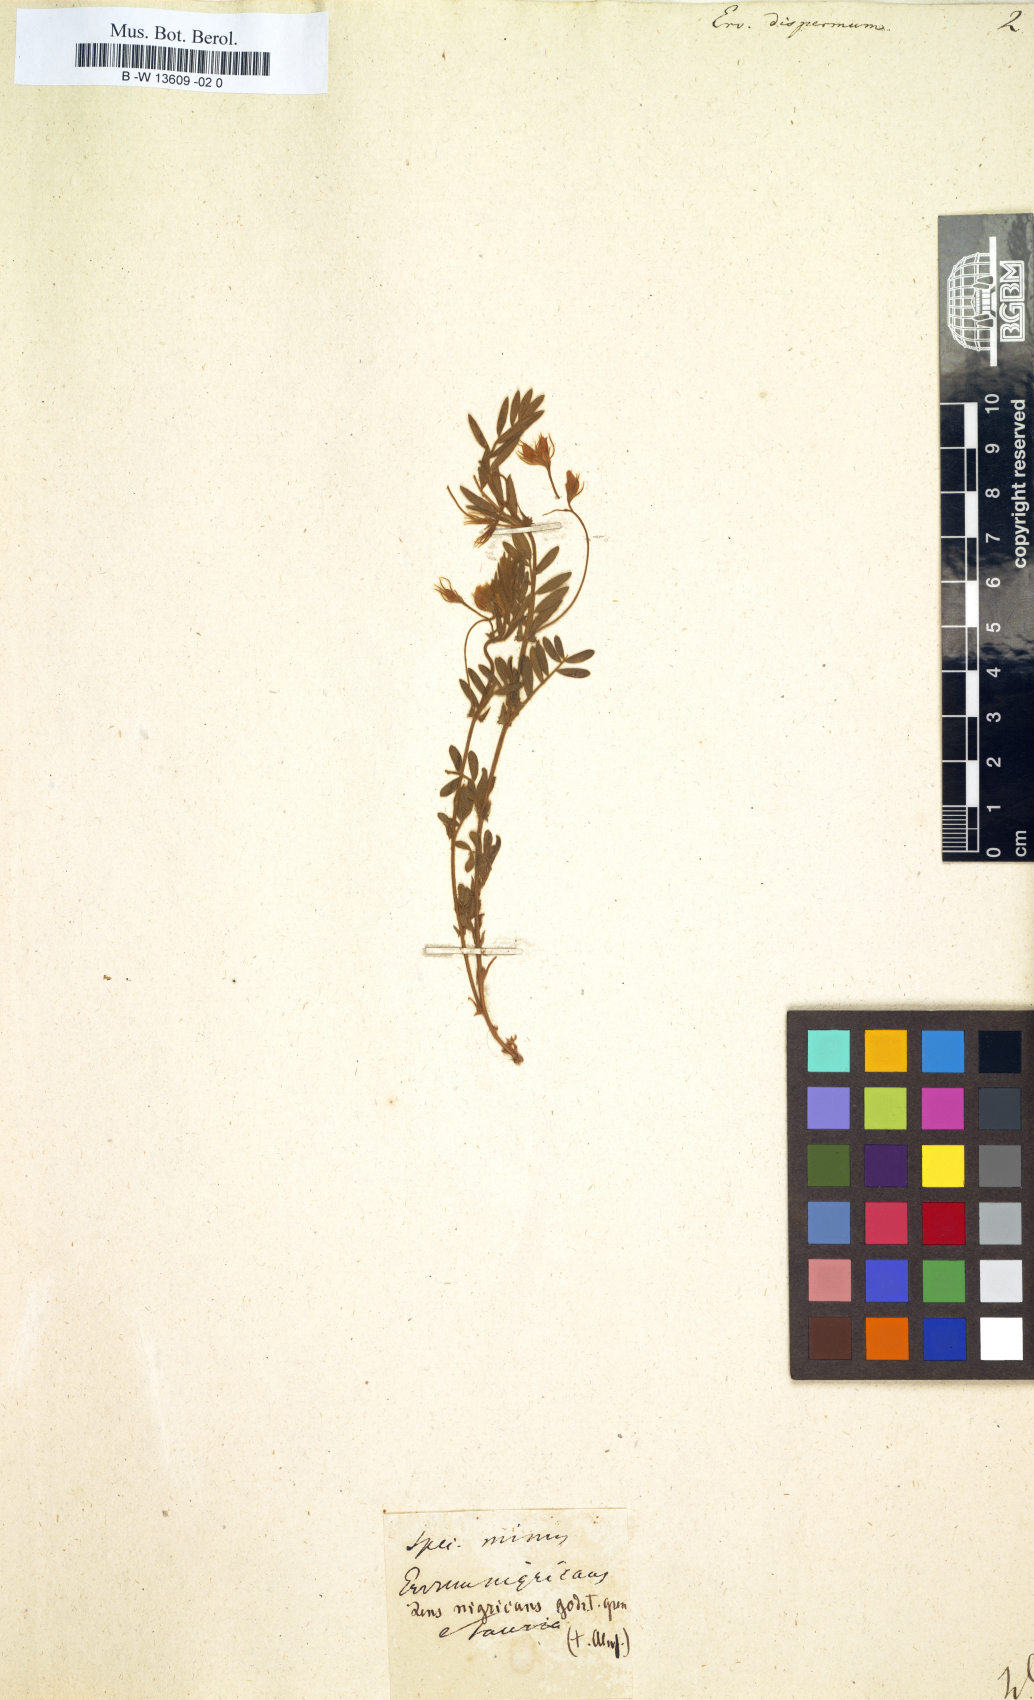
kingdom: Plantae
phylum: Tracheophyta
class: Magnoliopsida
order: Fabales
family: Fabaceae
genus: Vicia
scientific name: Vicia lens
